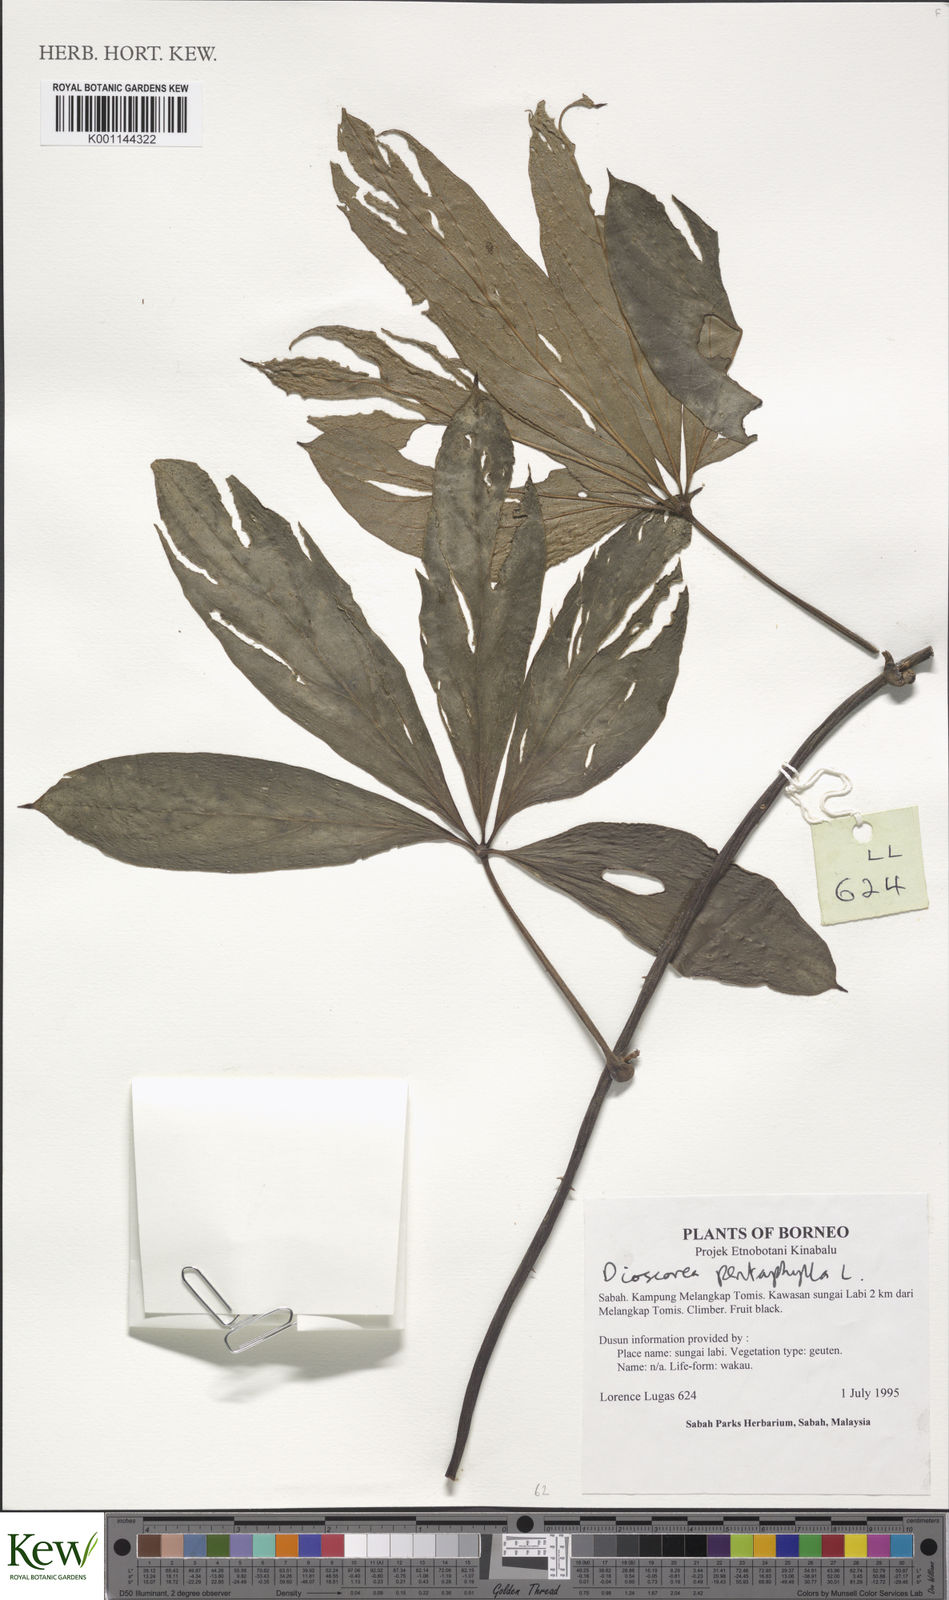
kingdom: Plantae
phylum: Tracheophyta
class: Liliopsida
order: Dioscoreales
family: Dioscoreaceae
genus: Dioscorea
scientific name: Dioscorea pentaphylla
